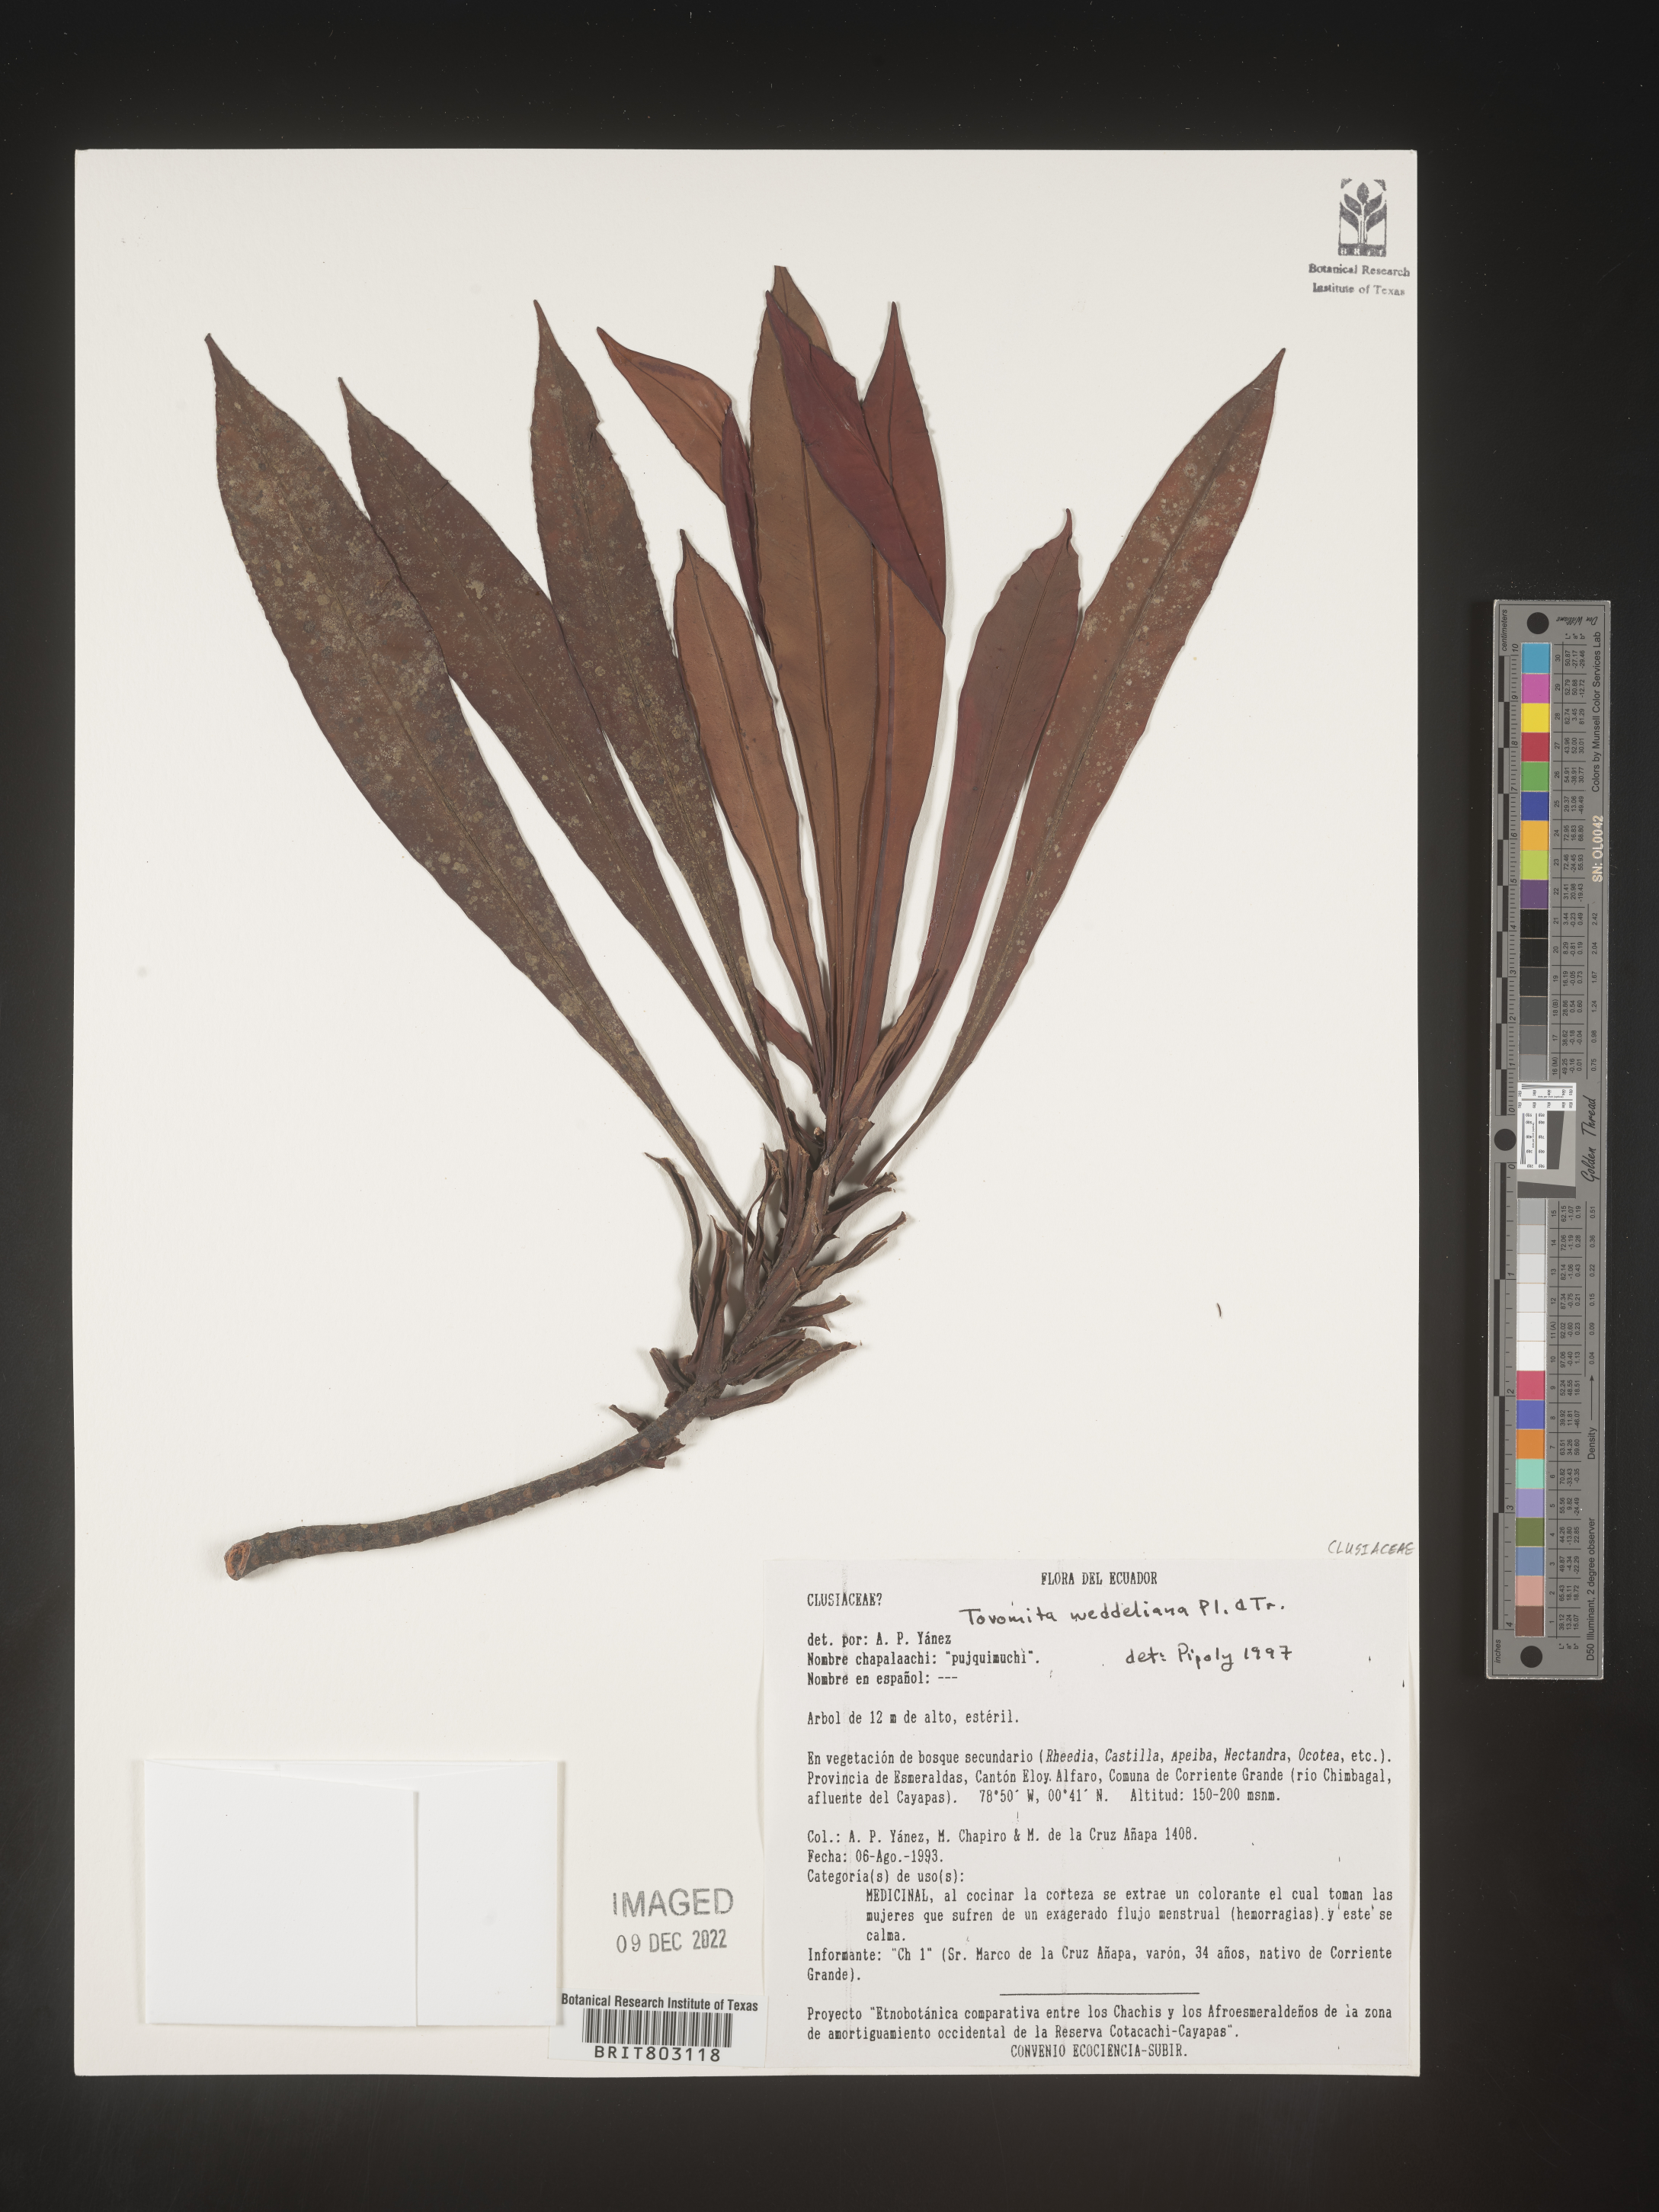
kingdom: Plantae
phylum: Tracheophyta
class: Magnoliopsida
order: Malpighiales
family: Clusiaceae
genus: Arawakia
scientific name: Arawakia weddelliana
